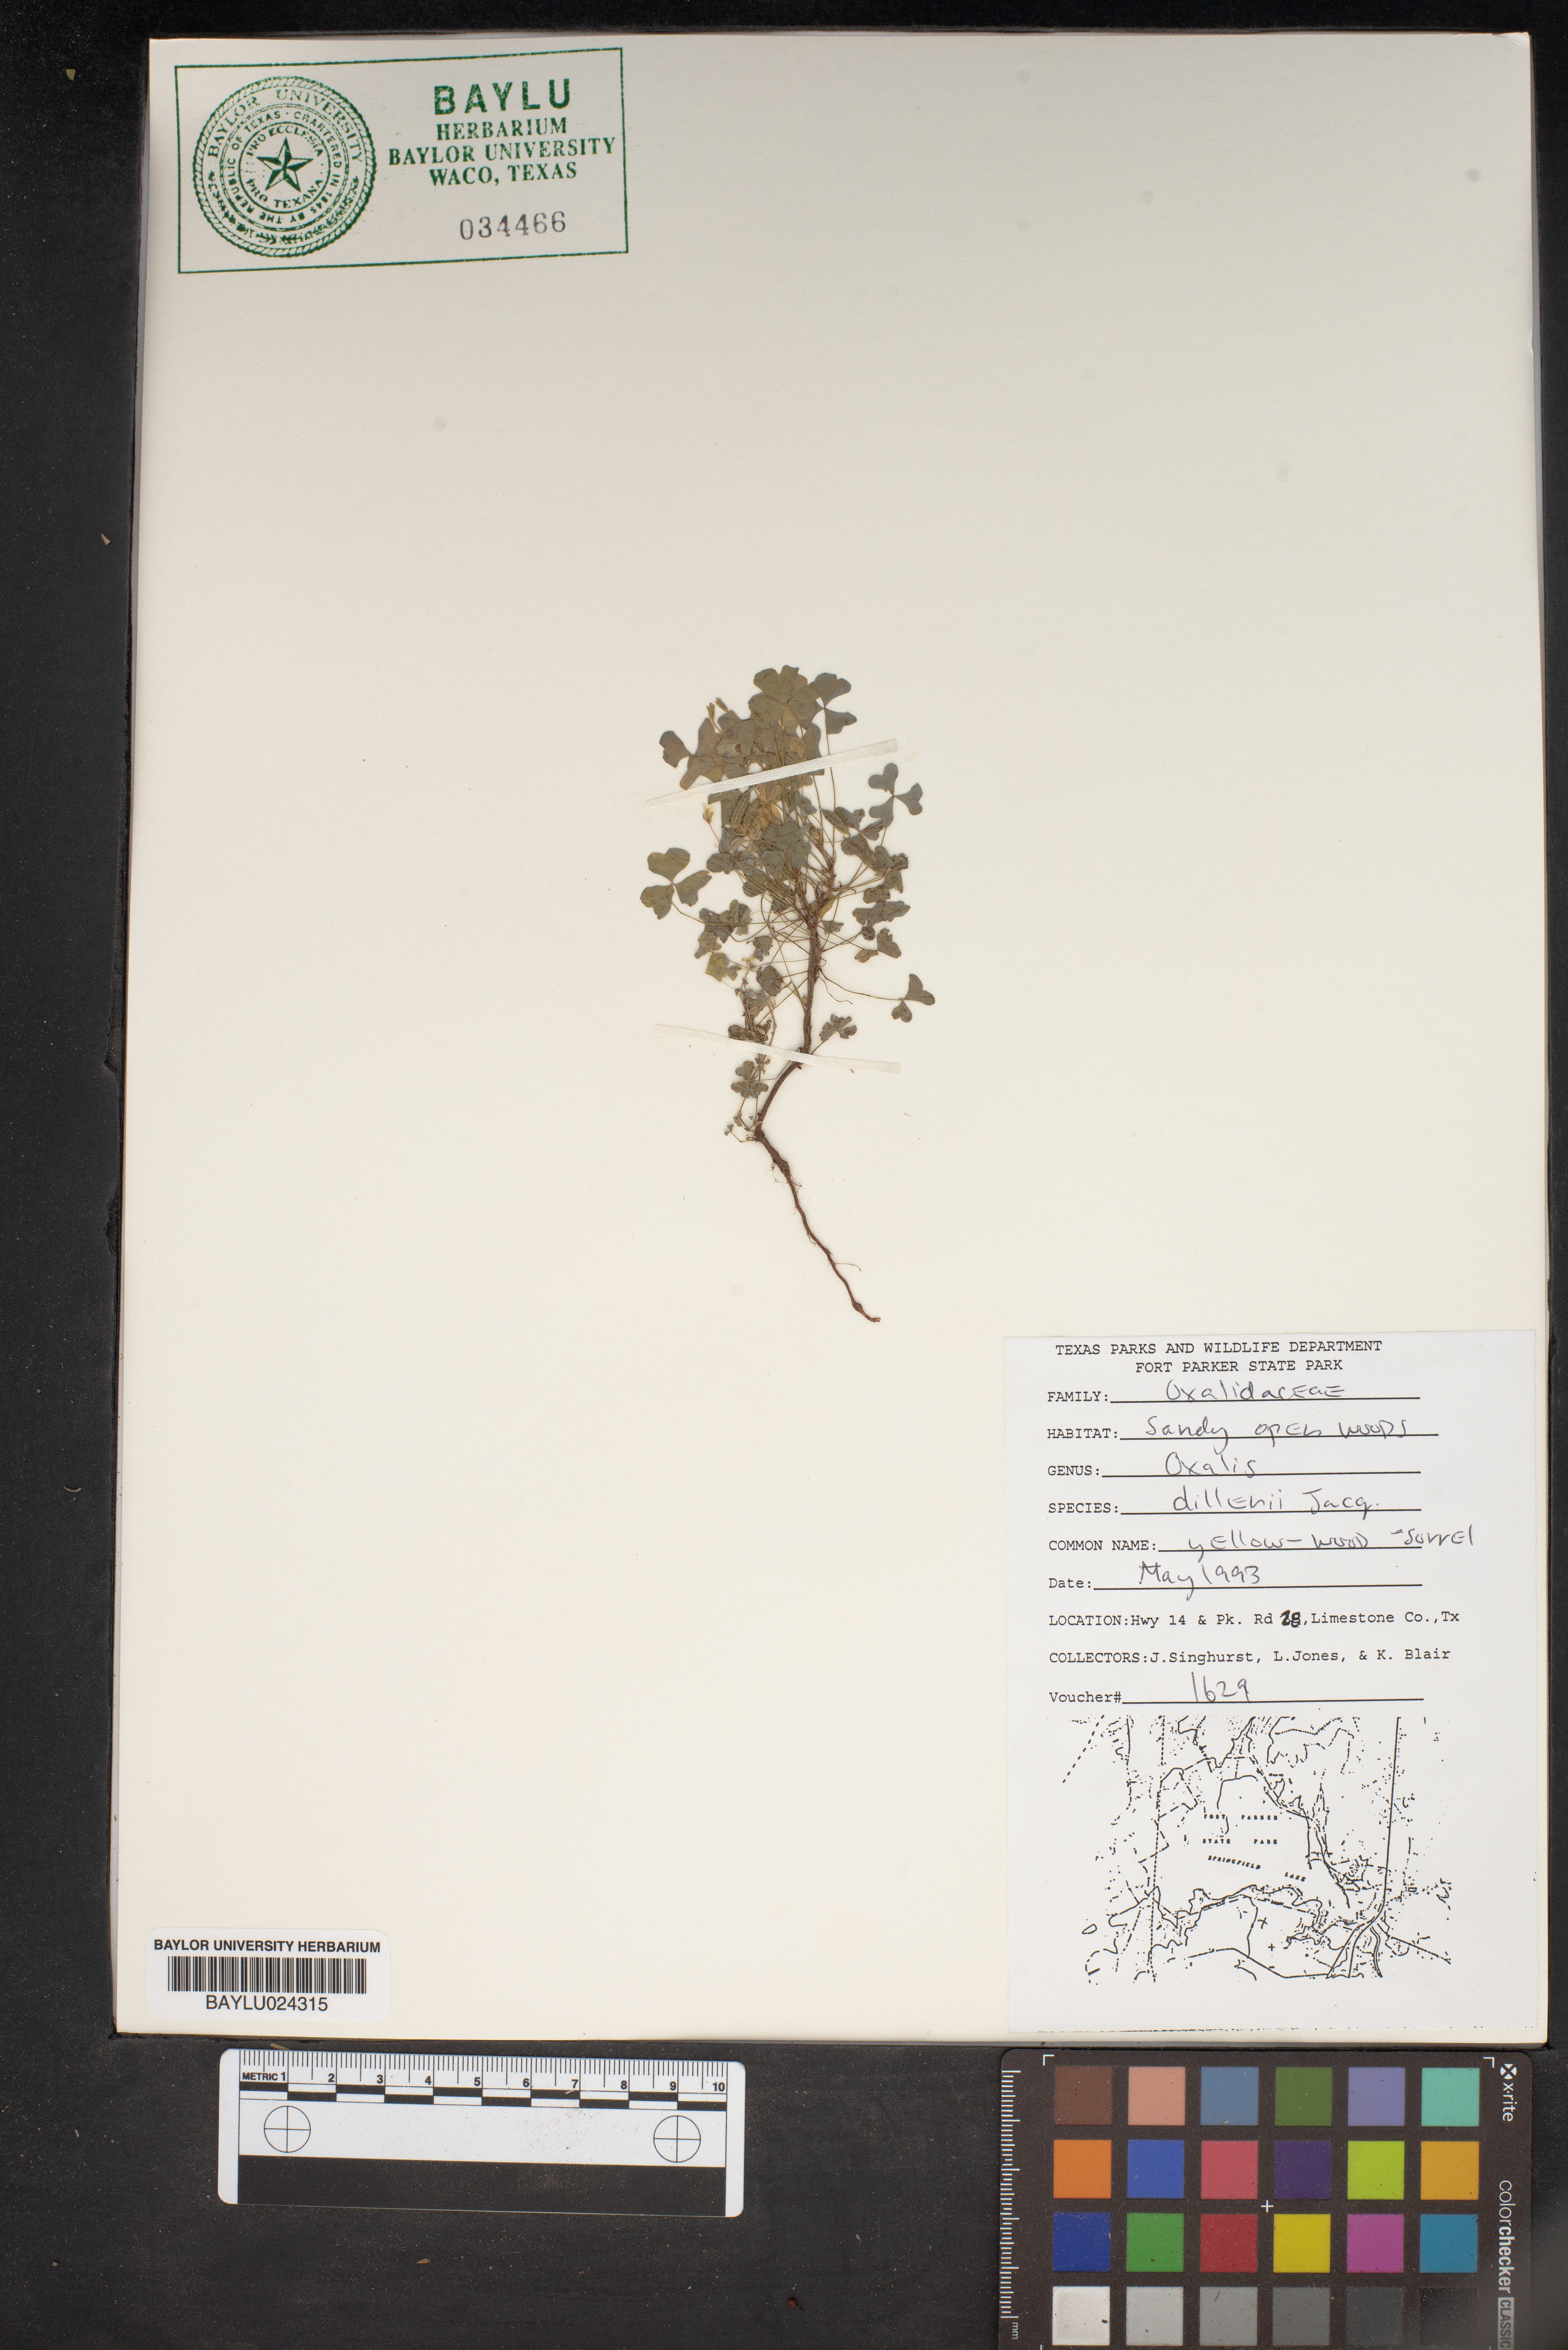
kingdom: Plantae
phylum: Tracheophyta
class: Magnoliopsida
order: Oxalidales
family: Oxalidaceae
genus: Oxalis
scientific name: Oxalis dillenii
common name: Sussex yellow-sorrel
